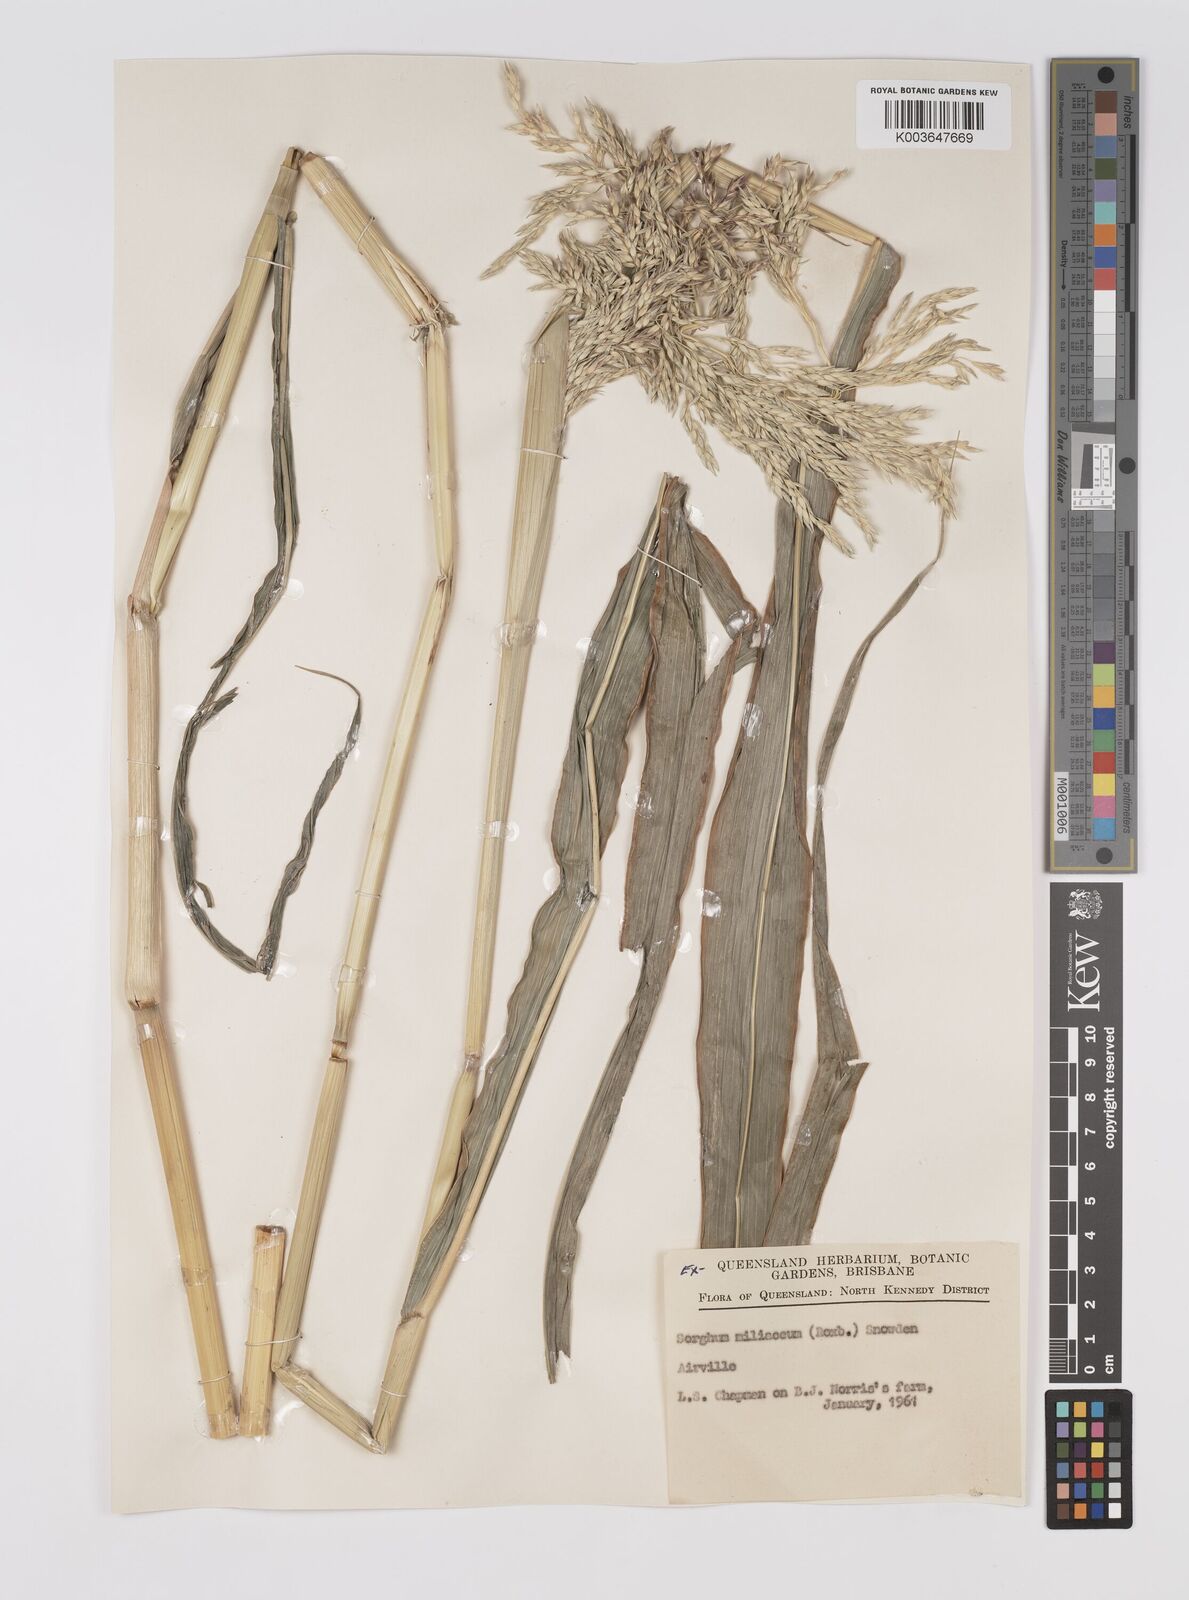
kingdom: Plantae
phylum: Tracheophyta
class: Liliopsida
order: Poales
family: Poaceae
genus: Sorghum
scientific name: Sorghum halepense
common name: Johnson-grass
